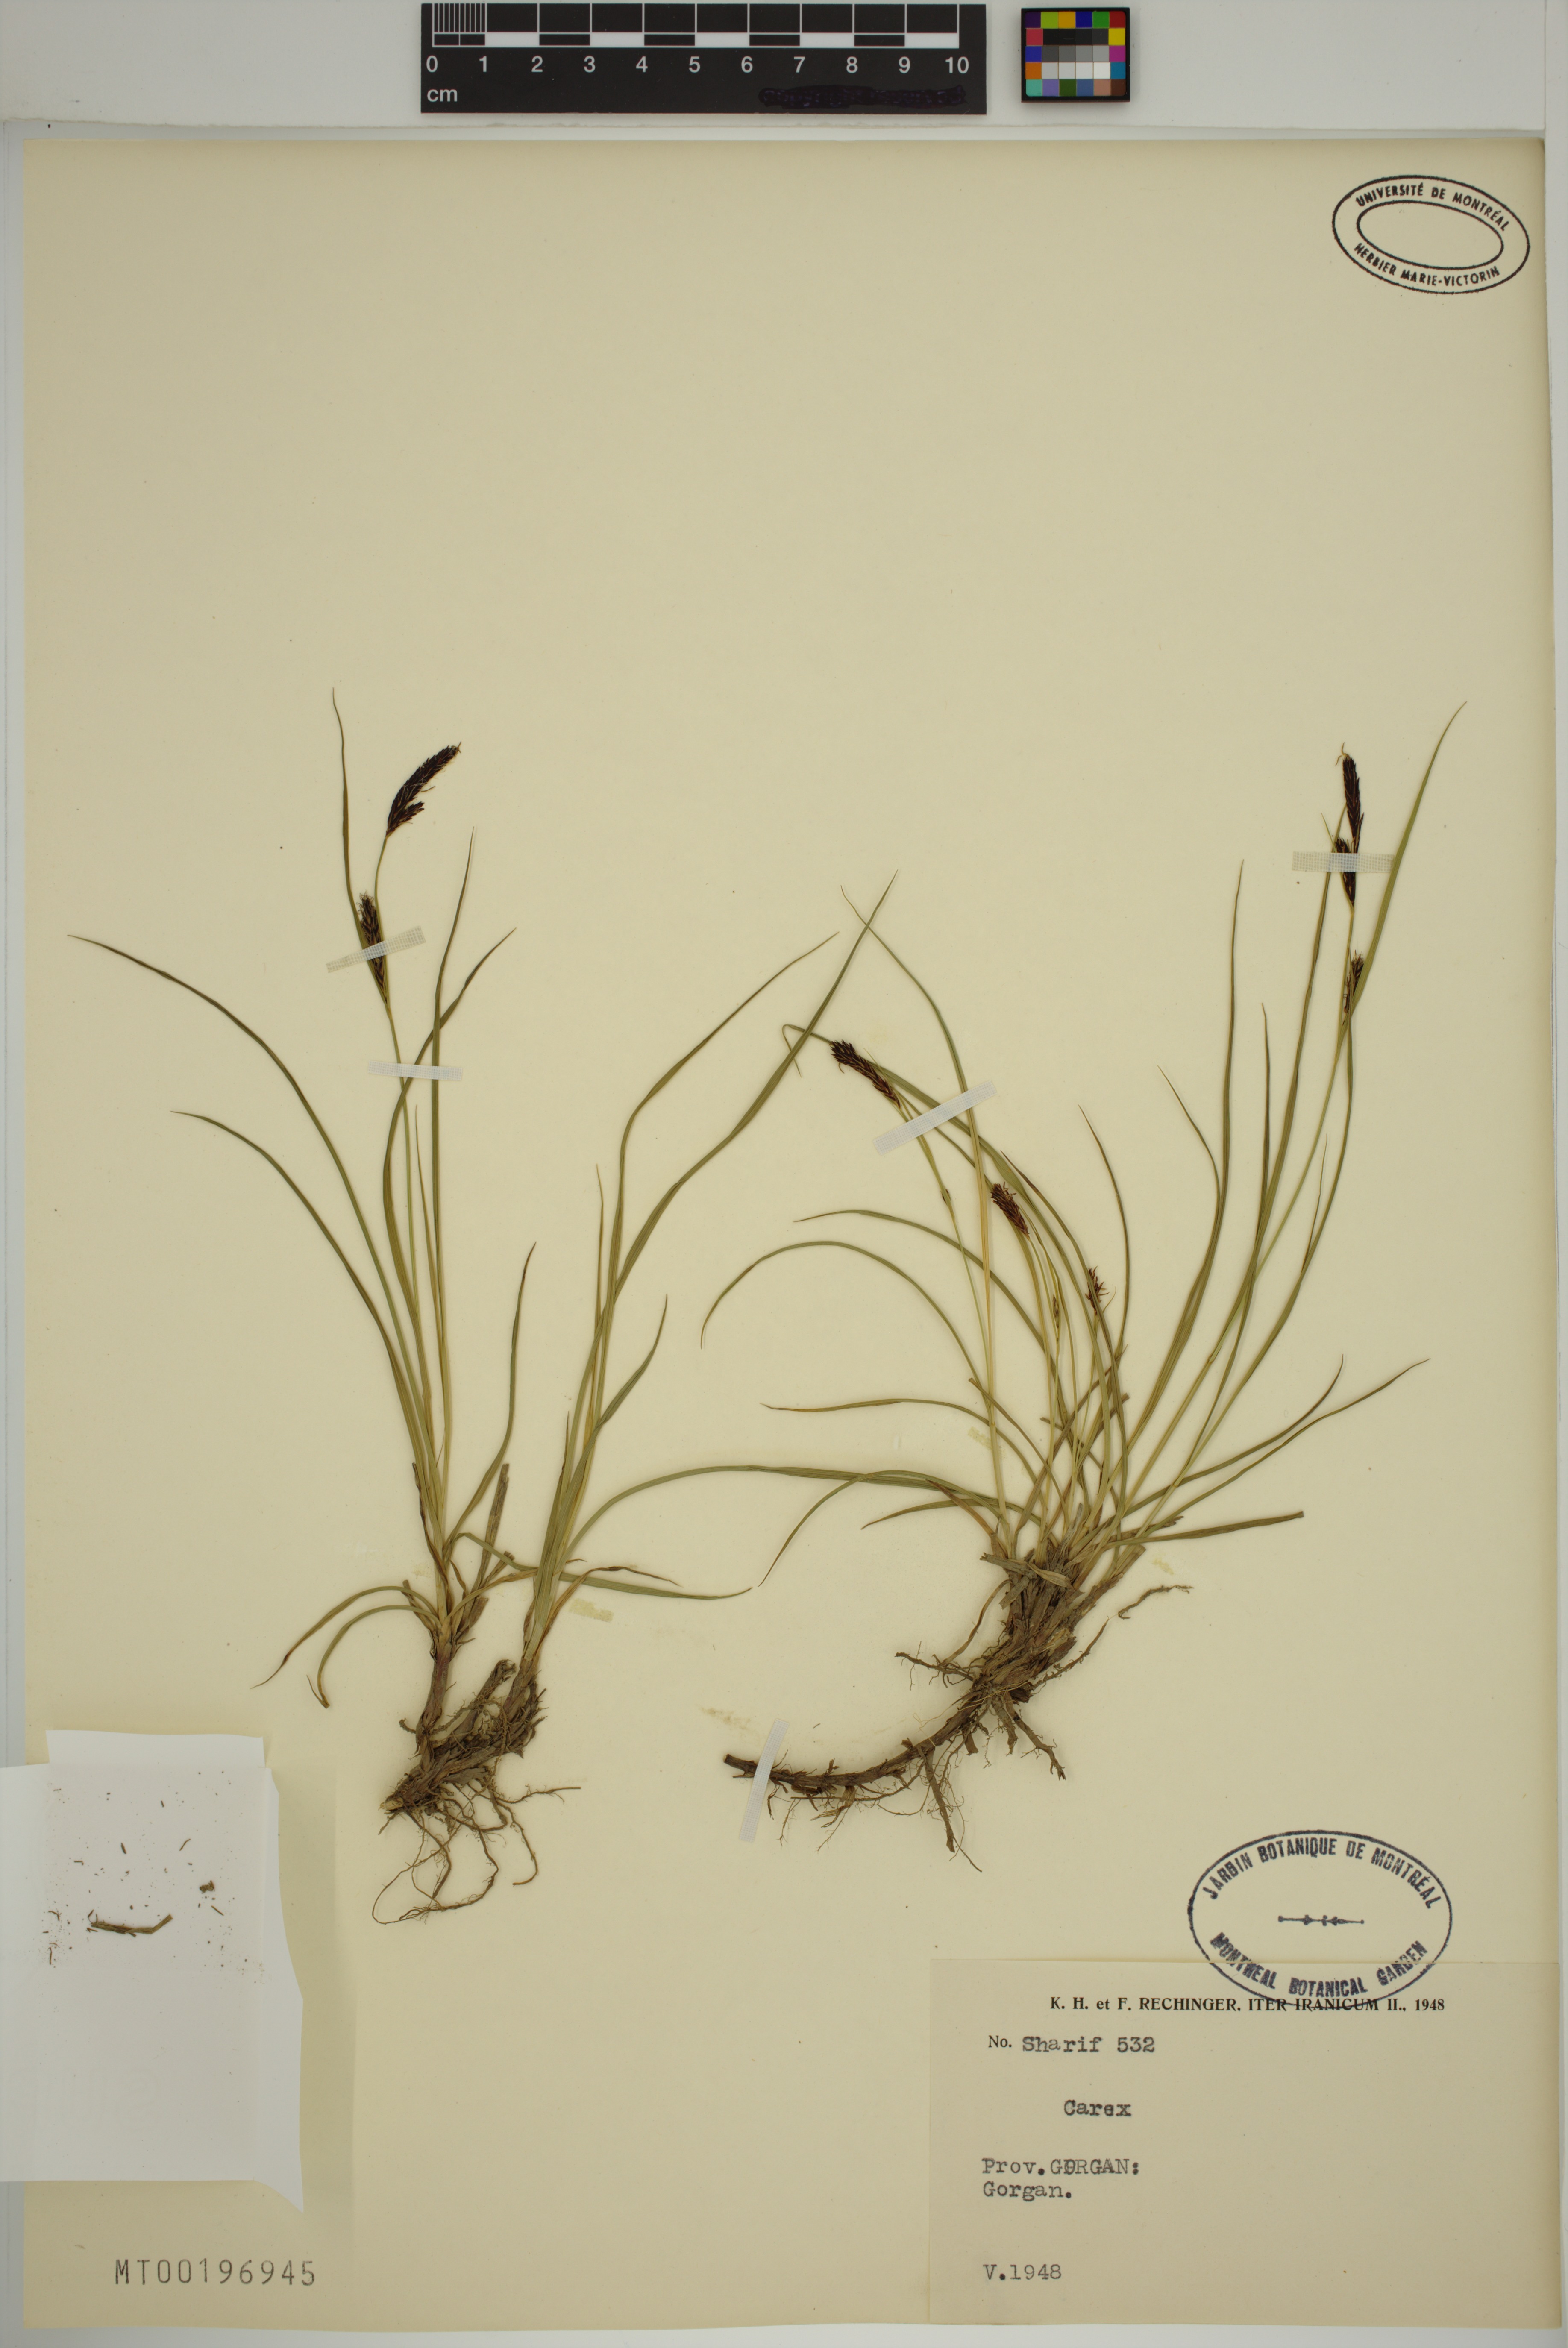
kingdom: Plantae
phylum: Tracheophyta
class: Liliopsida
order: Poales
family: Cyperaceae
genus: Carex
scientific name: Carex
